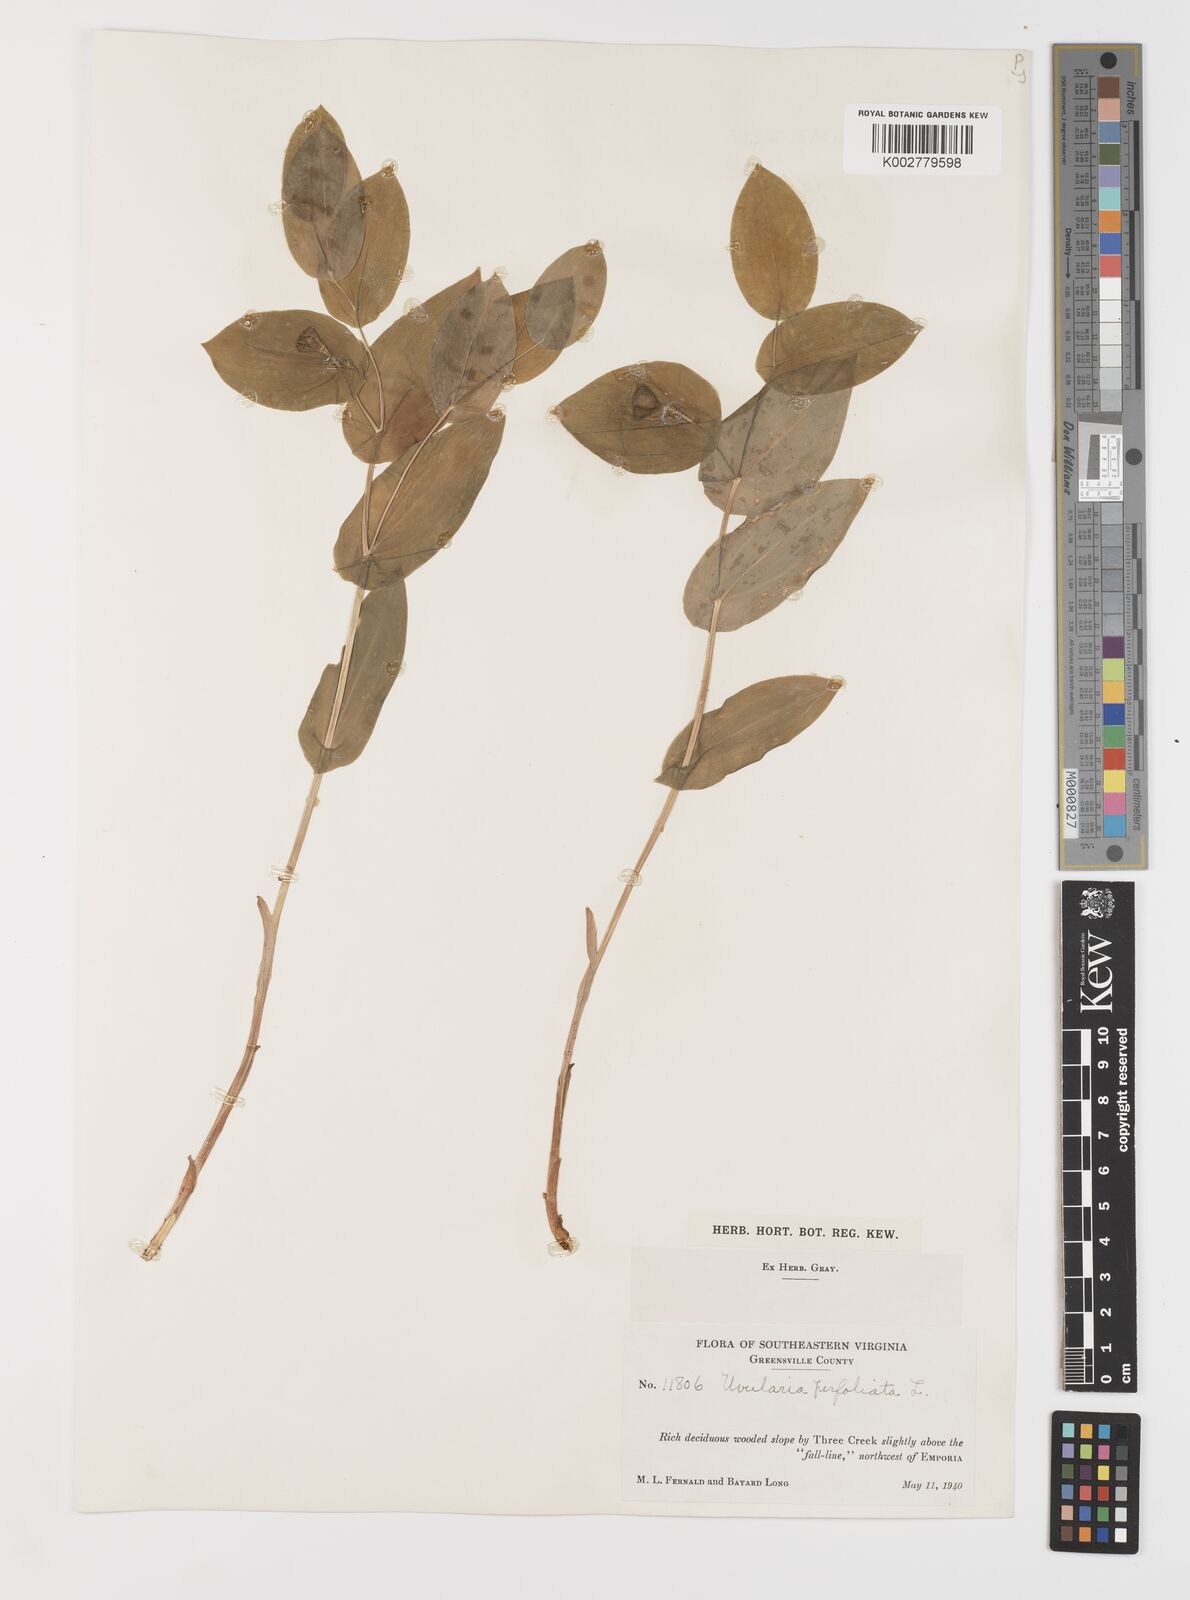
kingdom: Plantae
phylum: Tracheophyta
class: Liliopsida
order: Liliales
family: Colchicaceae
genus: Uvularia
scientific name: Uvularia perfoliata
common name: Perfoliate bellwort
